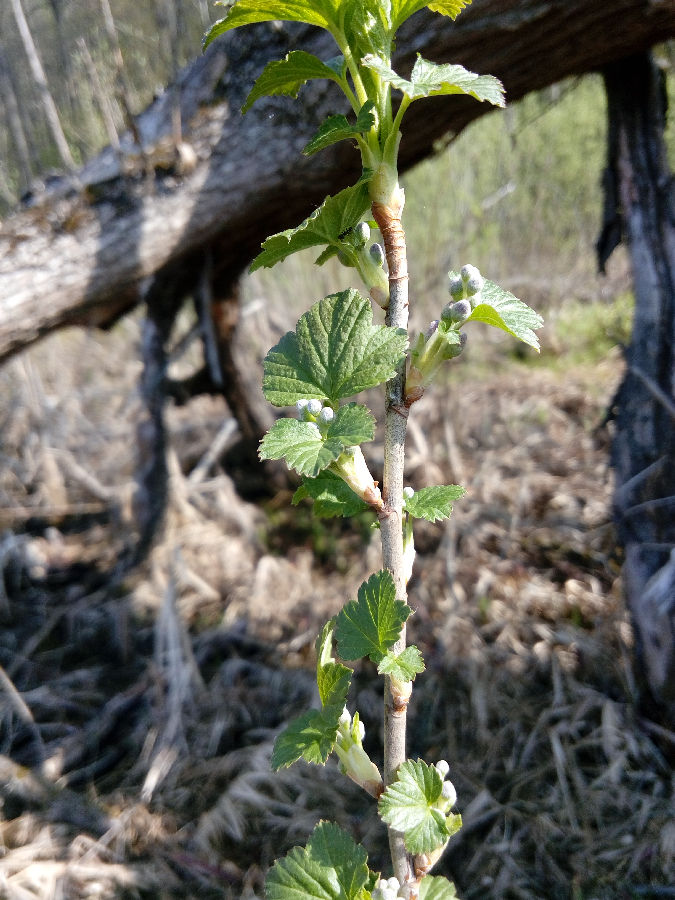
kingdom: Plantae
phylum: Tracheophyta
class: Magnoliopsida
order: Saxifragales
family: Grossulariaceae
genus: Ribes
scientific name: Ribes nigrum
